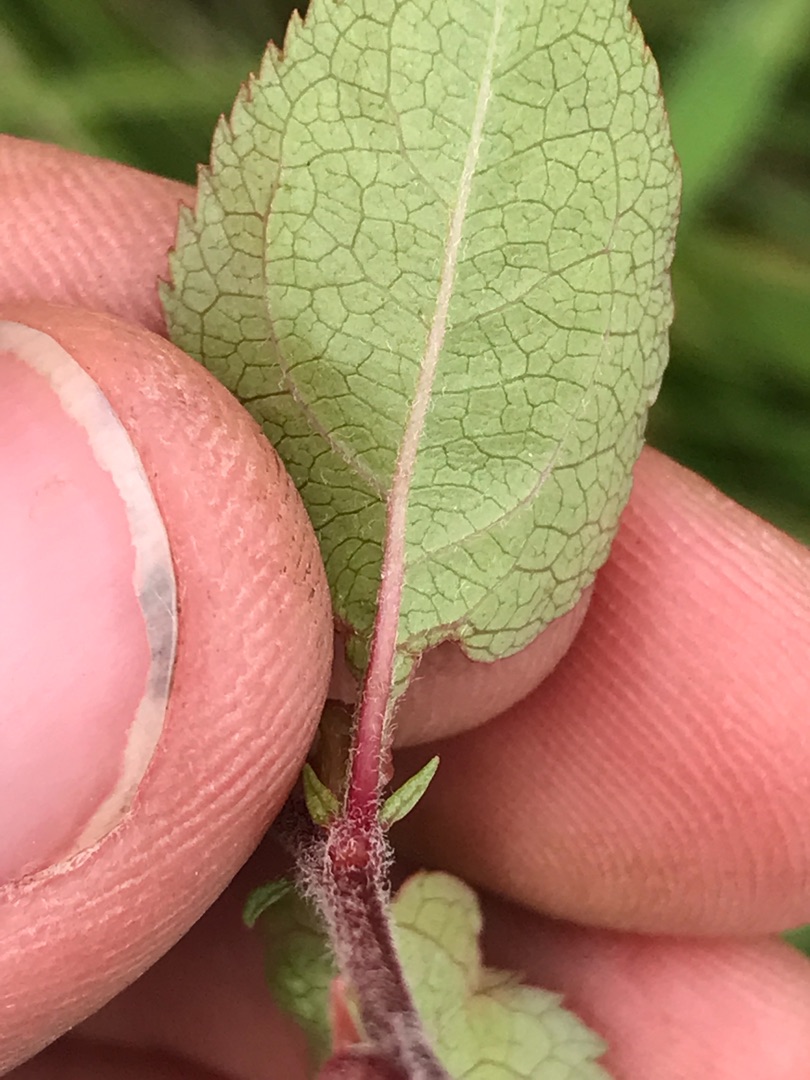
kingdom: Plantae
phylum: Tracheophyta
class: Magnoliopsida
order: Rosales
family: Rosaceae
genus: Prunus
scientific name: Prunus cerasifera
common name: Mirabel
